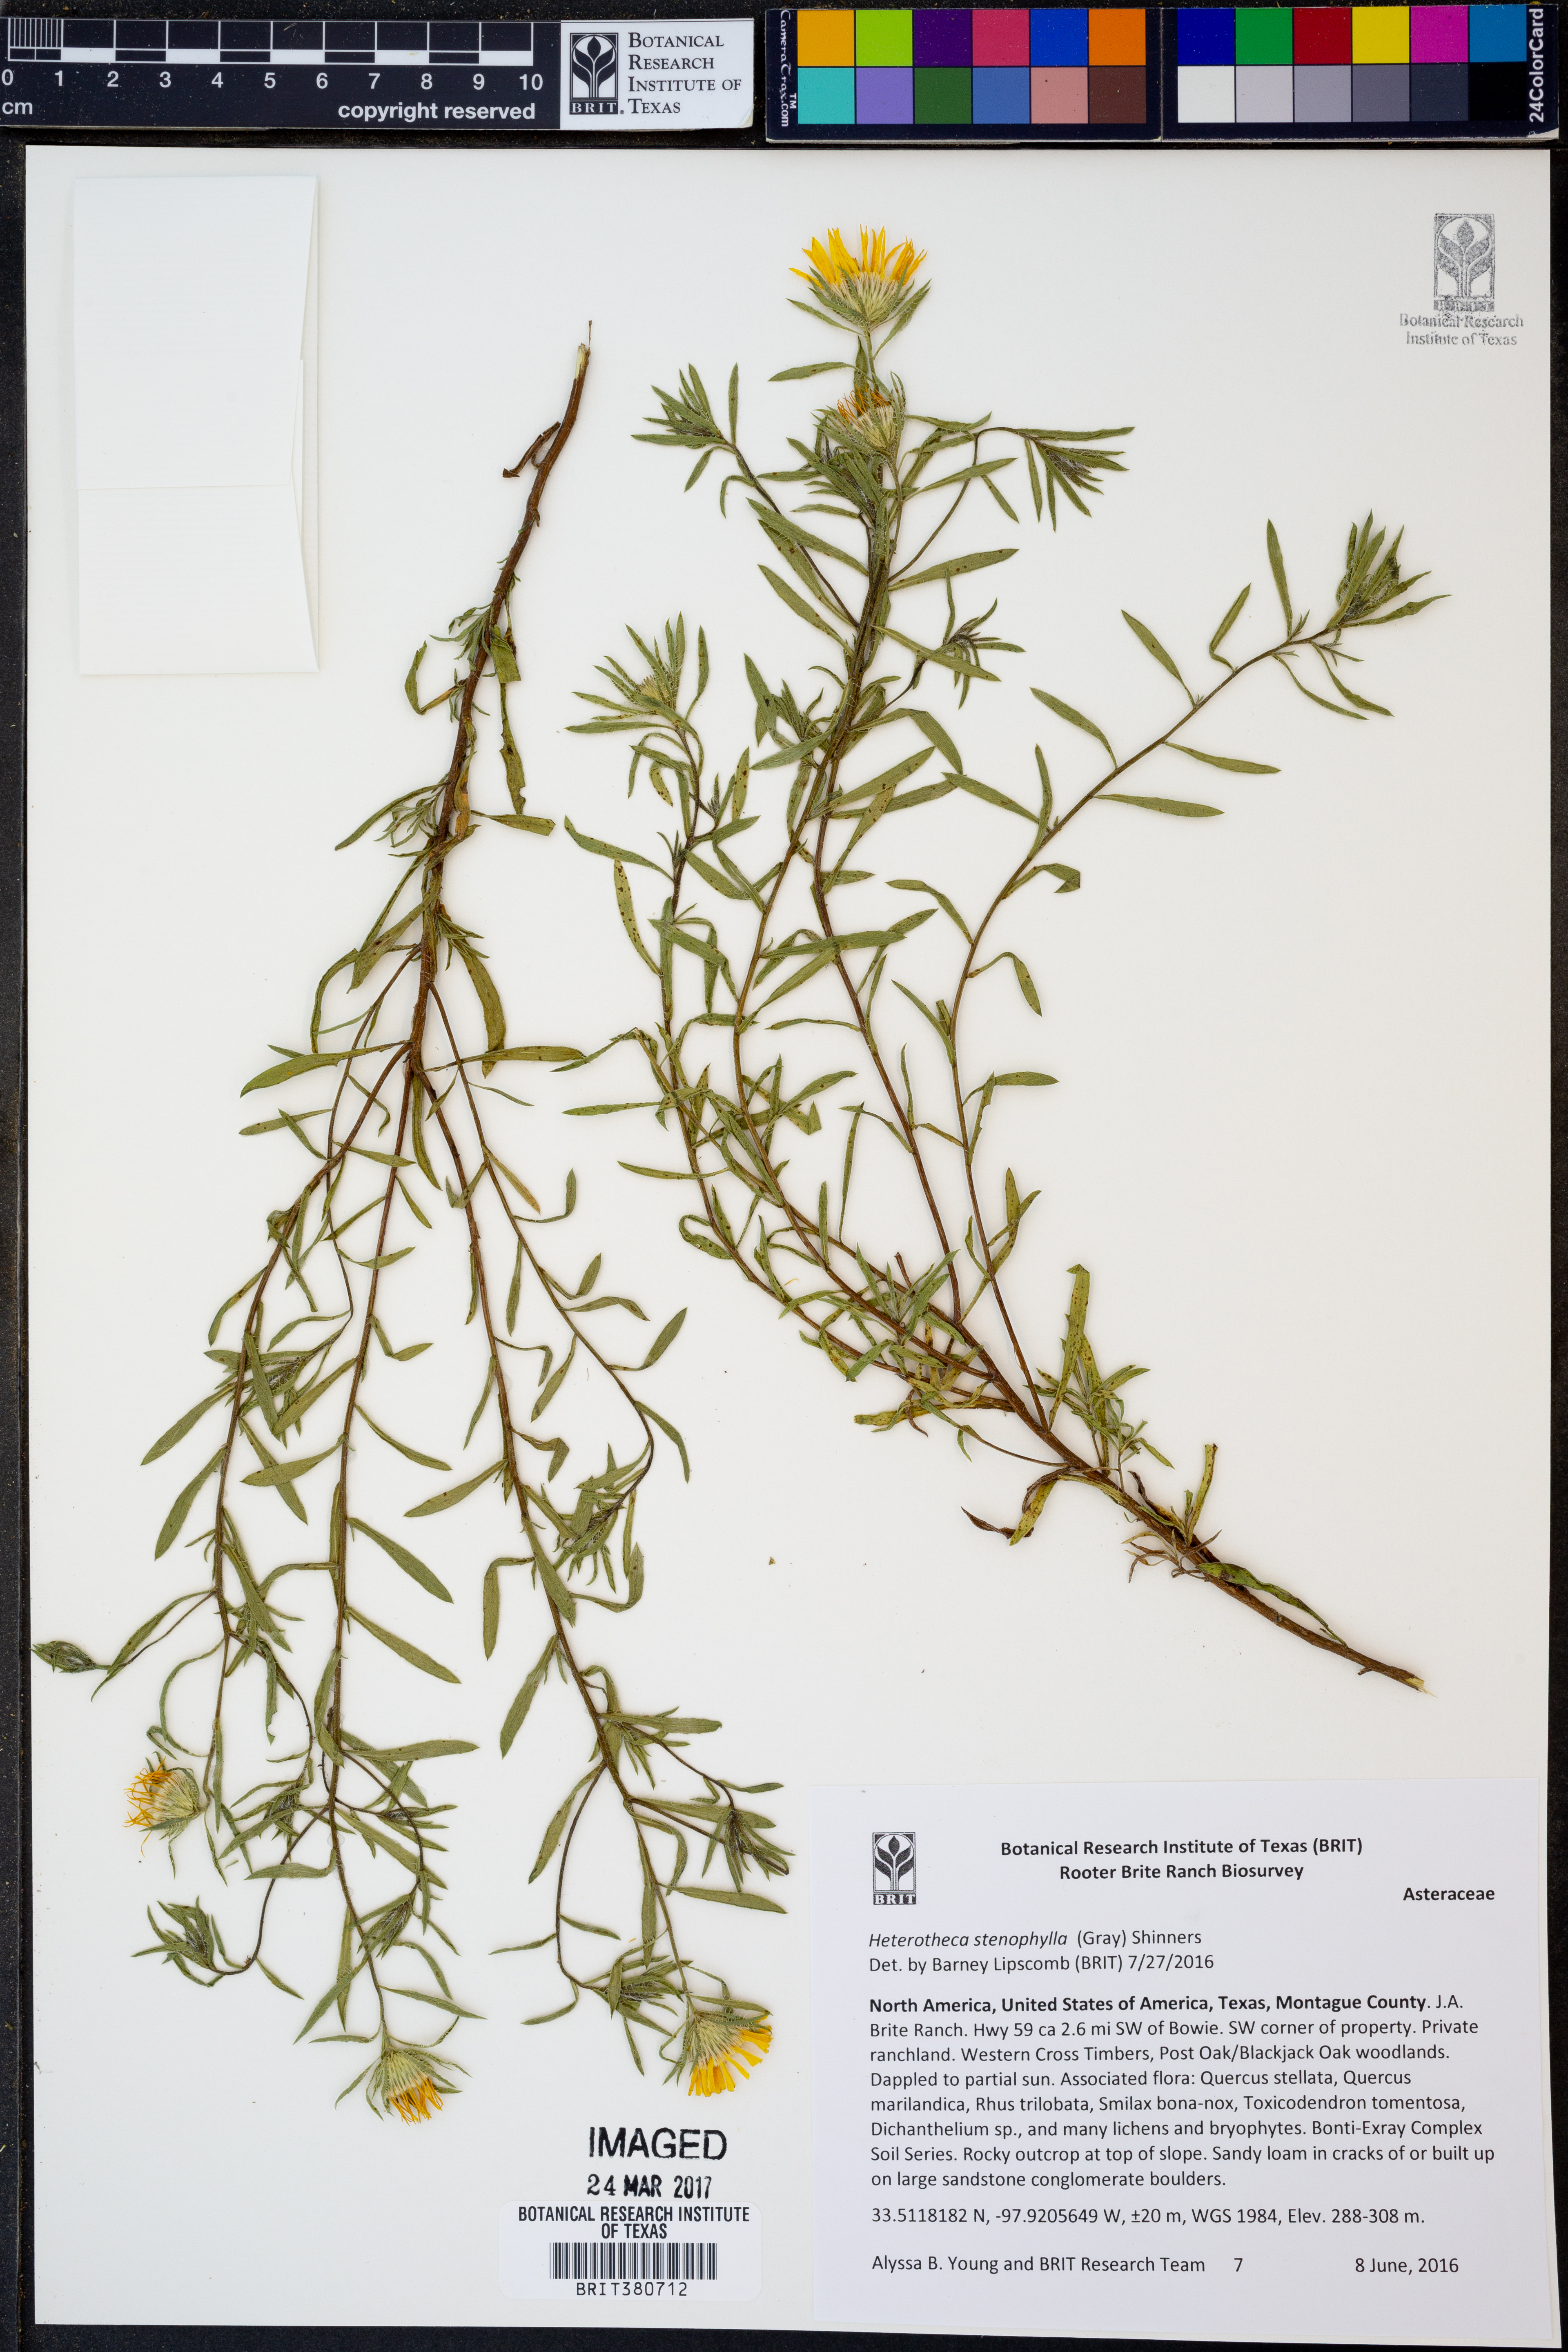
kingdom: Plantae
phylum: Tracheophyta
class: Magnoliopsida
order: Asterales
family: Asteraceae
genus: Heterotheca
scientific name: Heterotheca stenophylla
